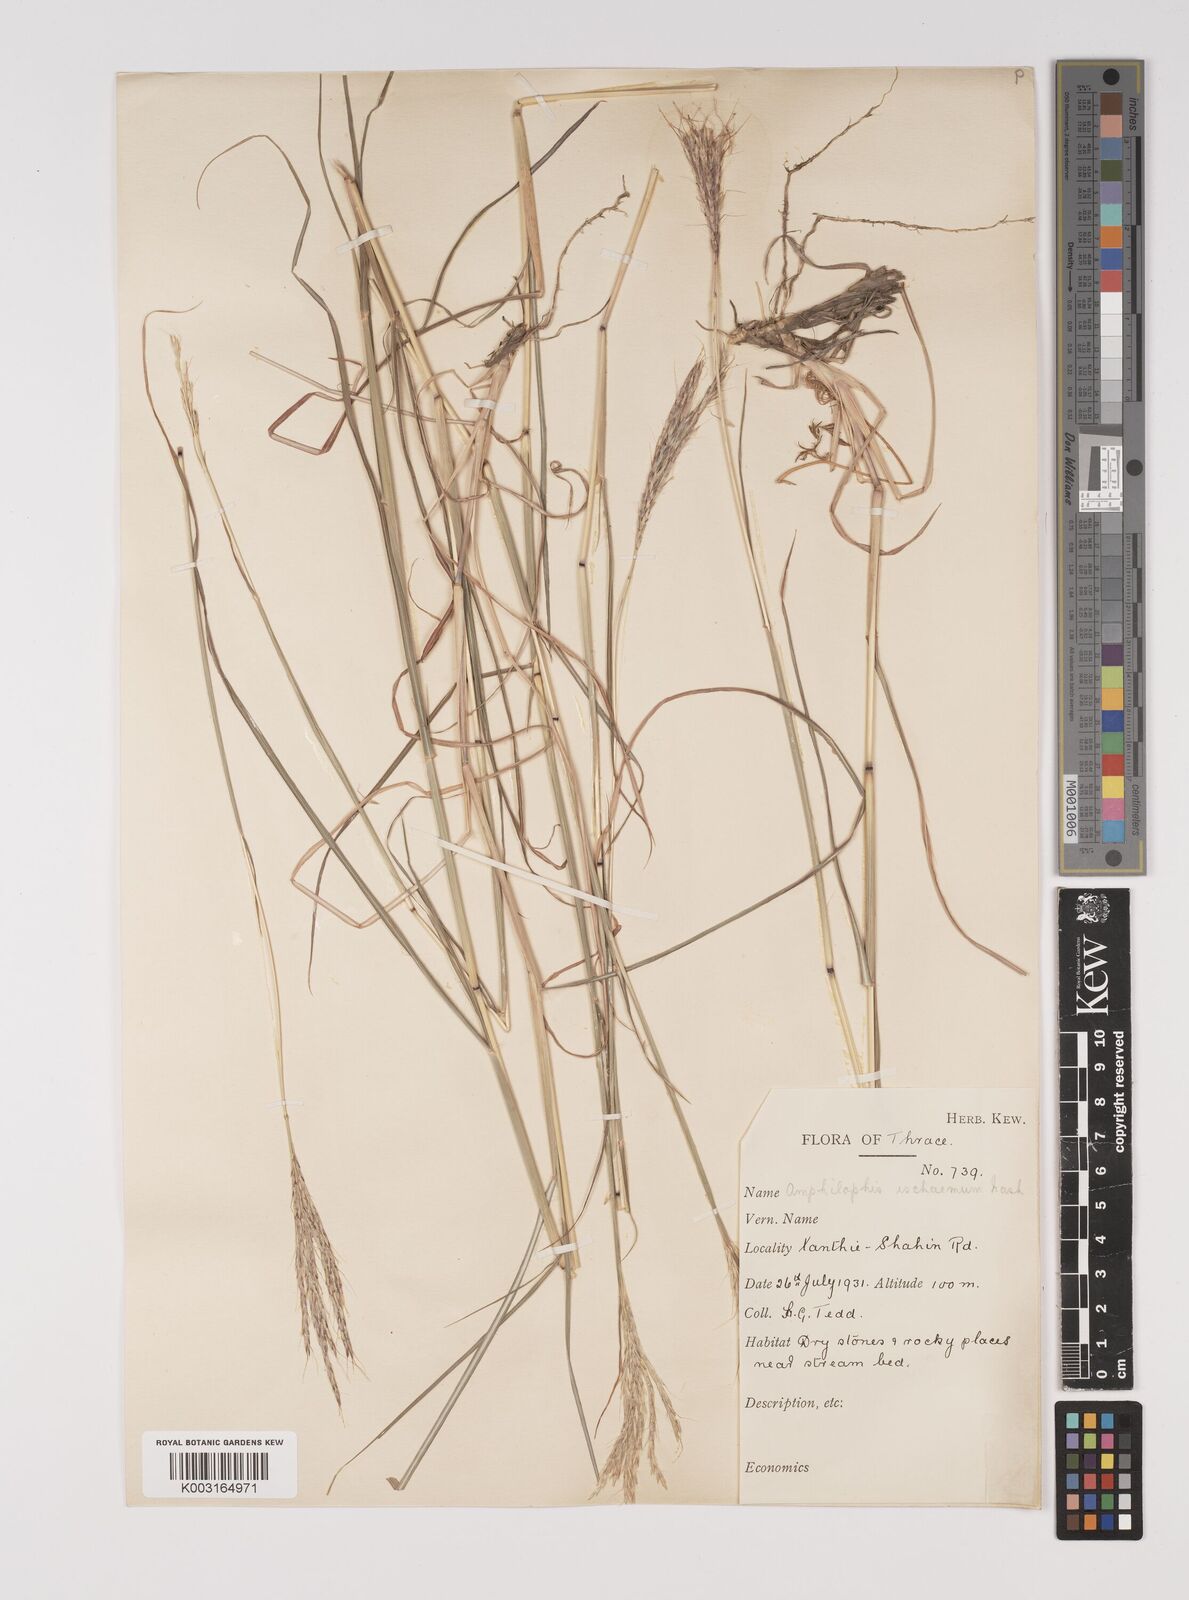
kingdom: Plantae
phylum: Tracheophyta
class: Liliopsida
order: Poales
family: Poaceae
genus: Bothriochloa
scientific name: Bothriochloa ischaemum
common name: Yellow bluestem
